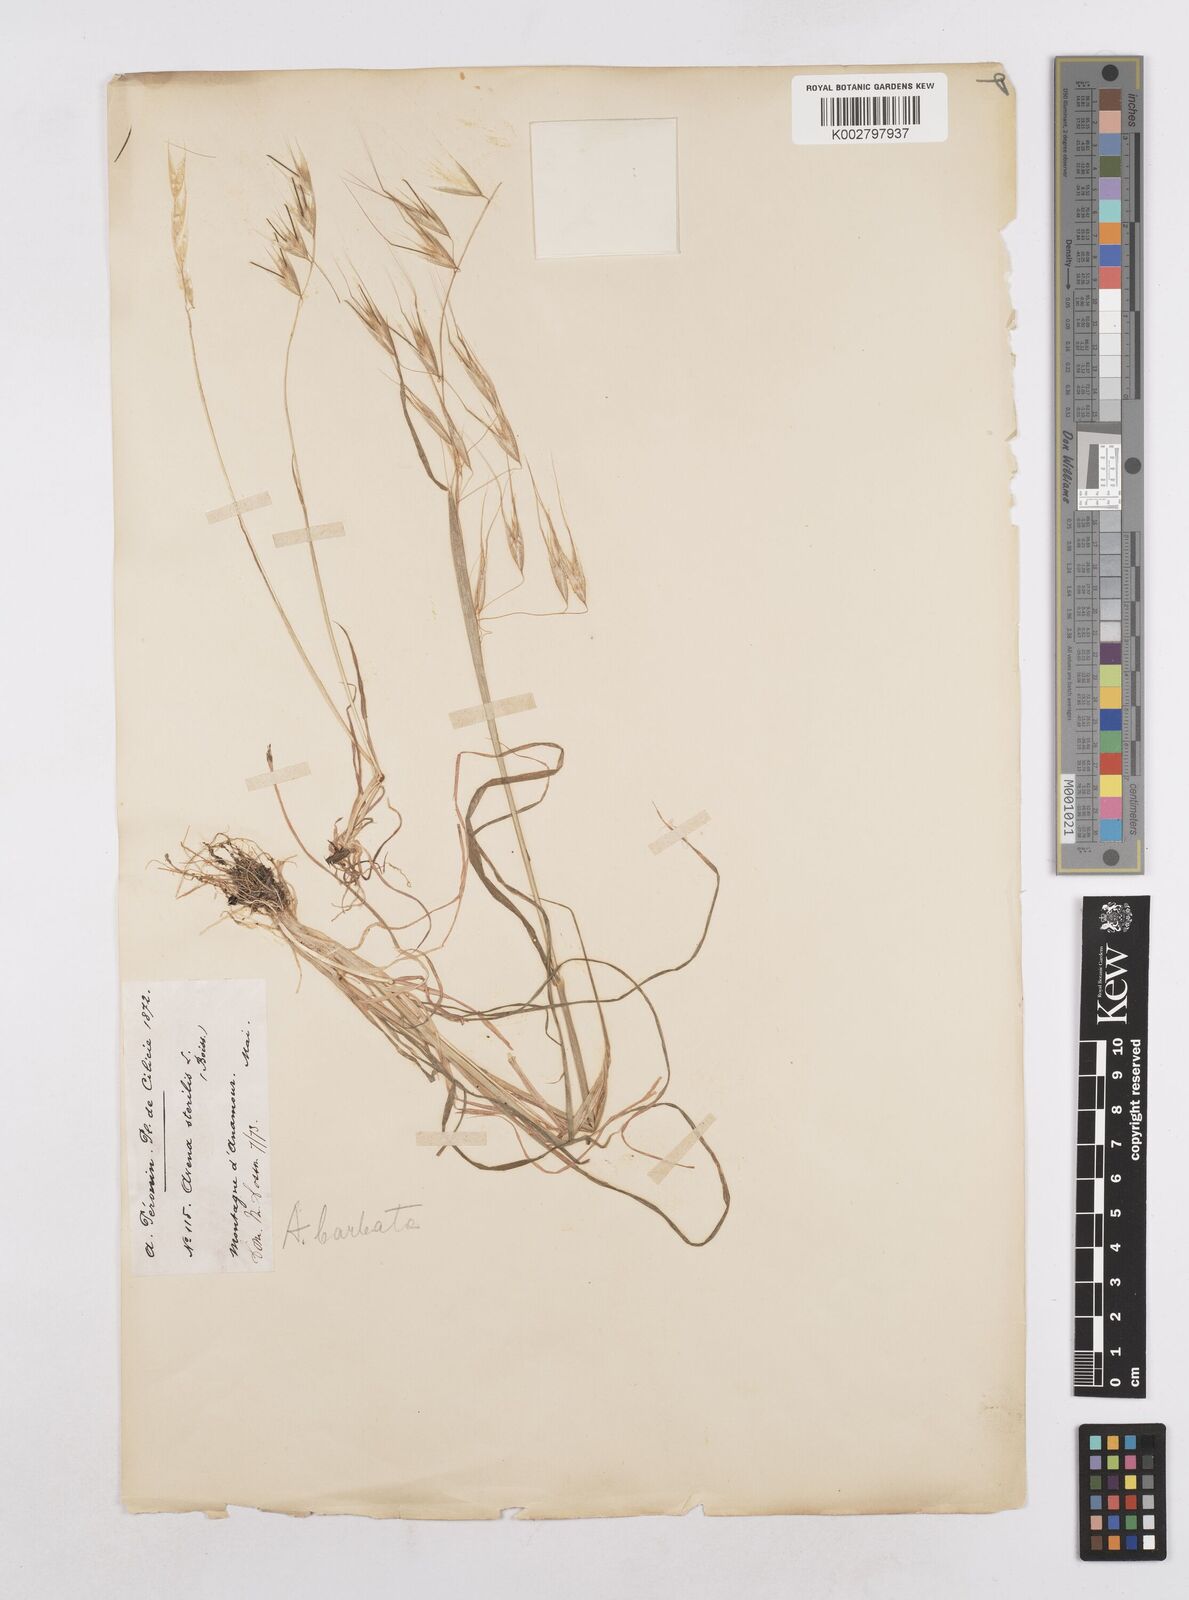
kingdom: Plantae
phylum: Tracheophyta
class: Liliopsida
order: Poales
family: Poaceae
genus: Avena
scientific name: Avena
